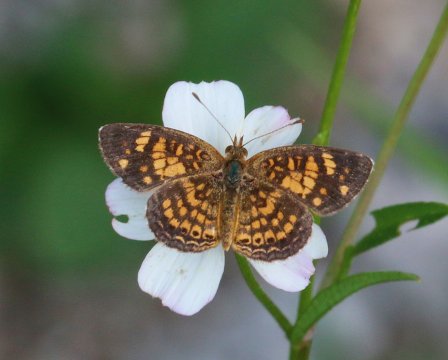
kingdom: Animalia
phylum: Arthropoda
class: Insecta
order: Lepidoptera
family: Nymphalidae
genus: Phyciodes
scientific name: Phyciodes vesta
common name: Vesta Crescent
